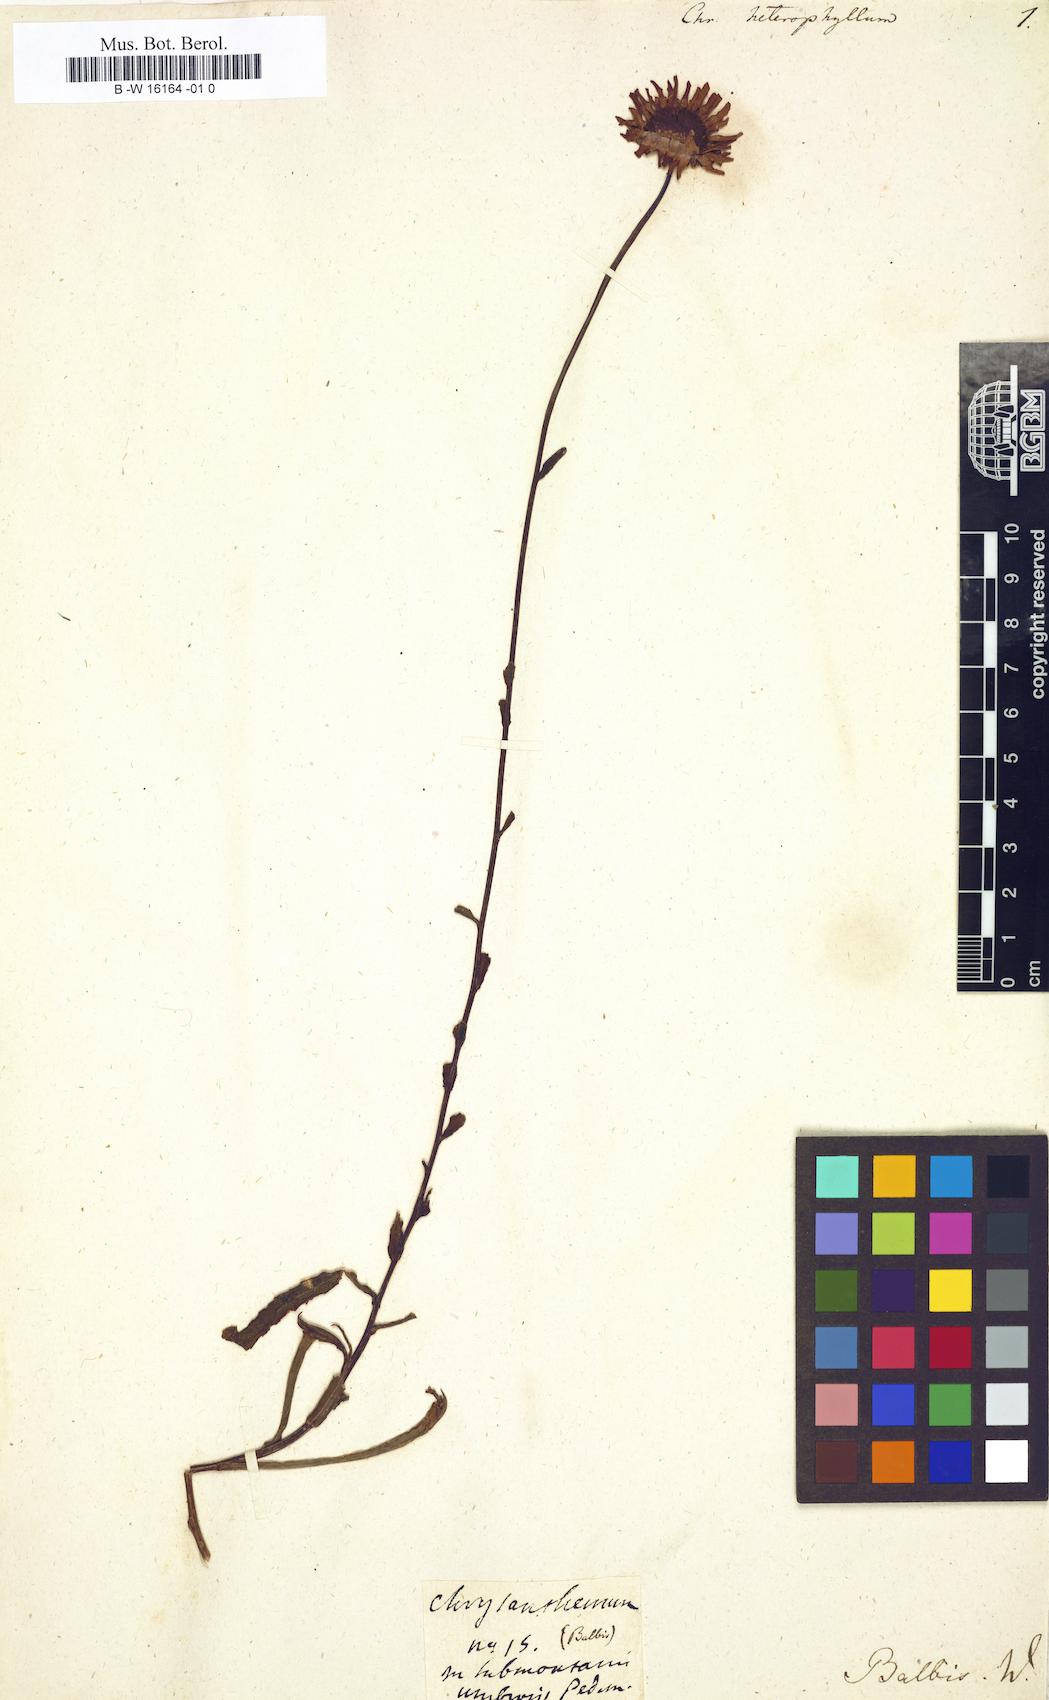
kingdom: Plantae
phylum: Tracheophyta
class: Magnoliopsida
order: Asterales
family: Asteraceae
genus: Leucanthemum
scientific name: Leucanthemum heterophyllum
